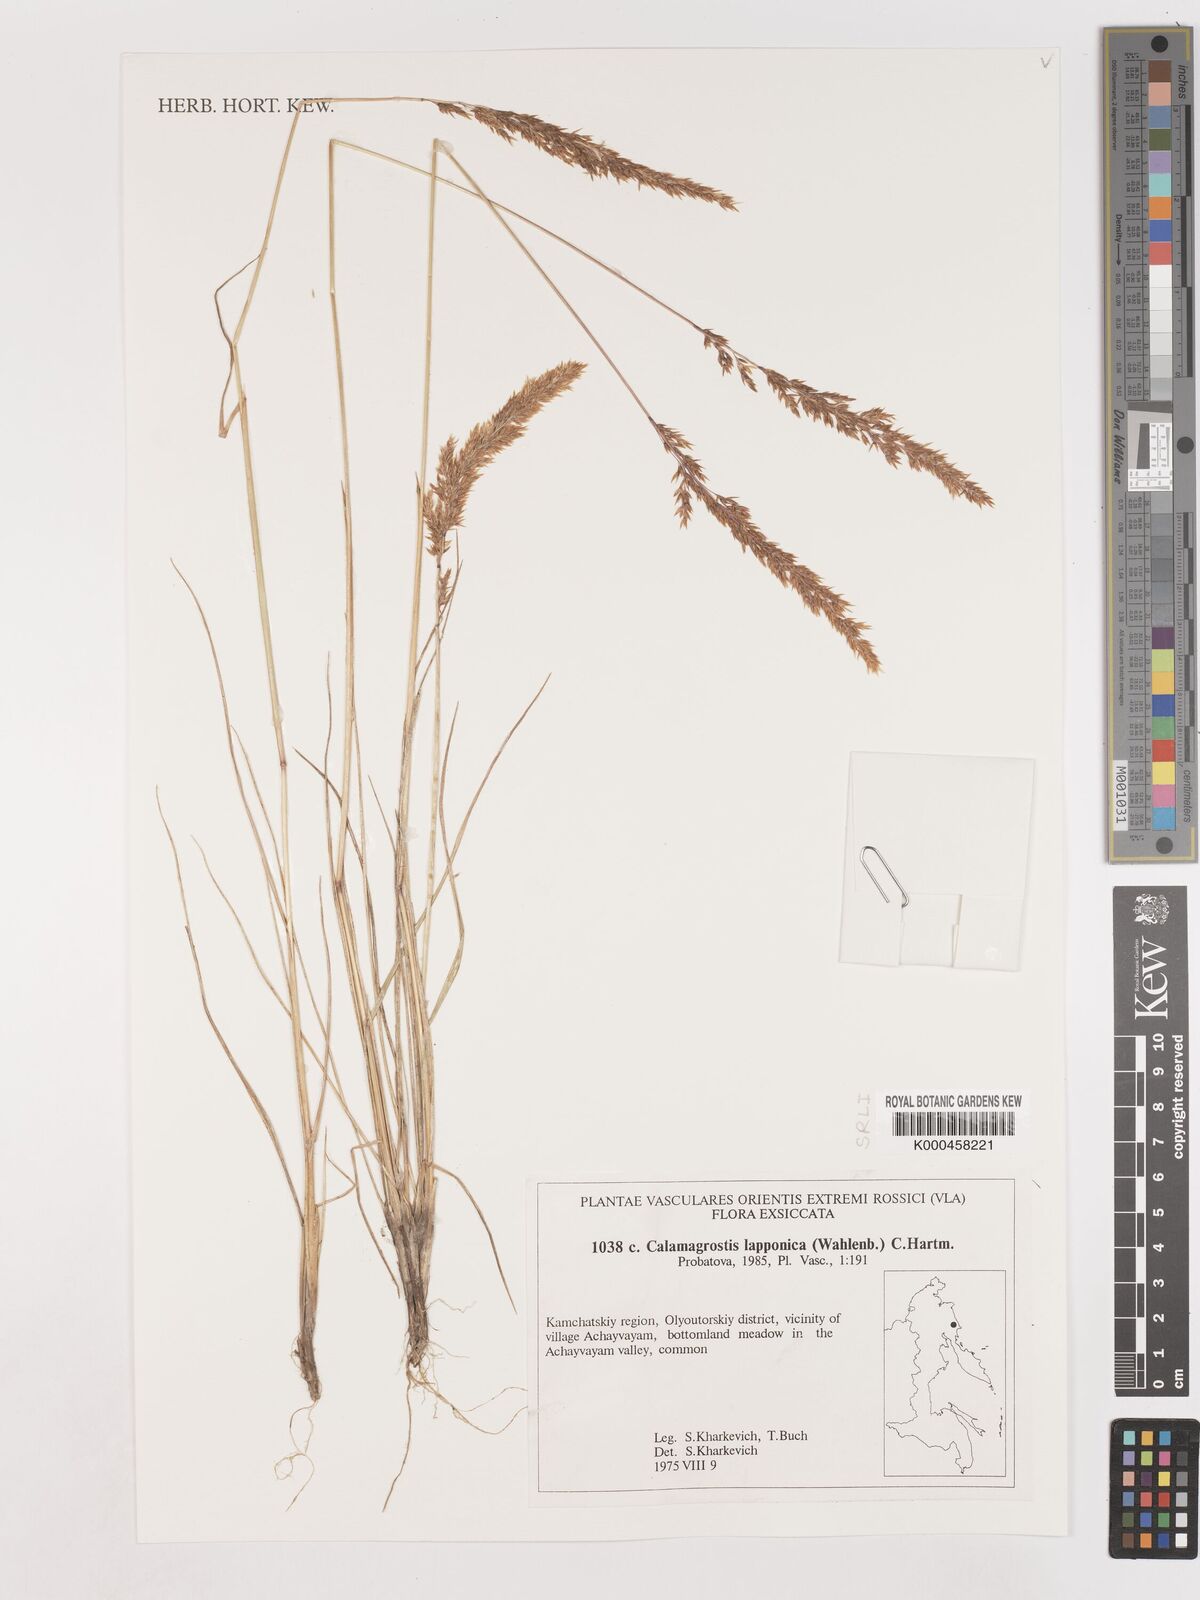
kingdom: Plantae
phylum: Tracheophyta
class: Liliopsida
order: Poales
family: Poaceae
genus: Calamagrostis
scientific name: Calamagrostis
